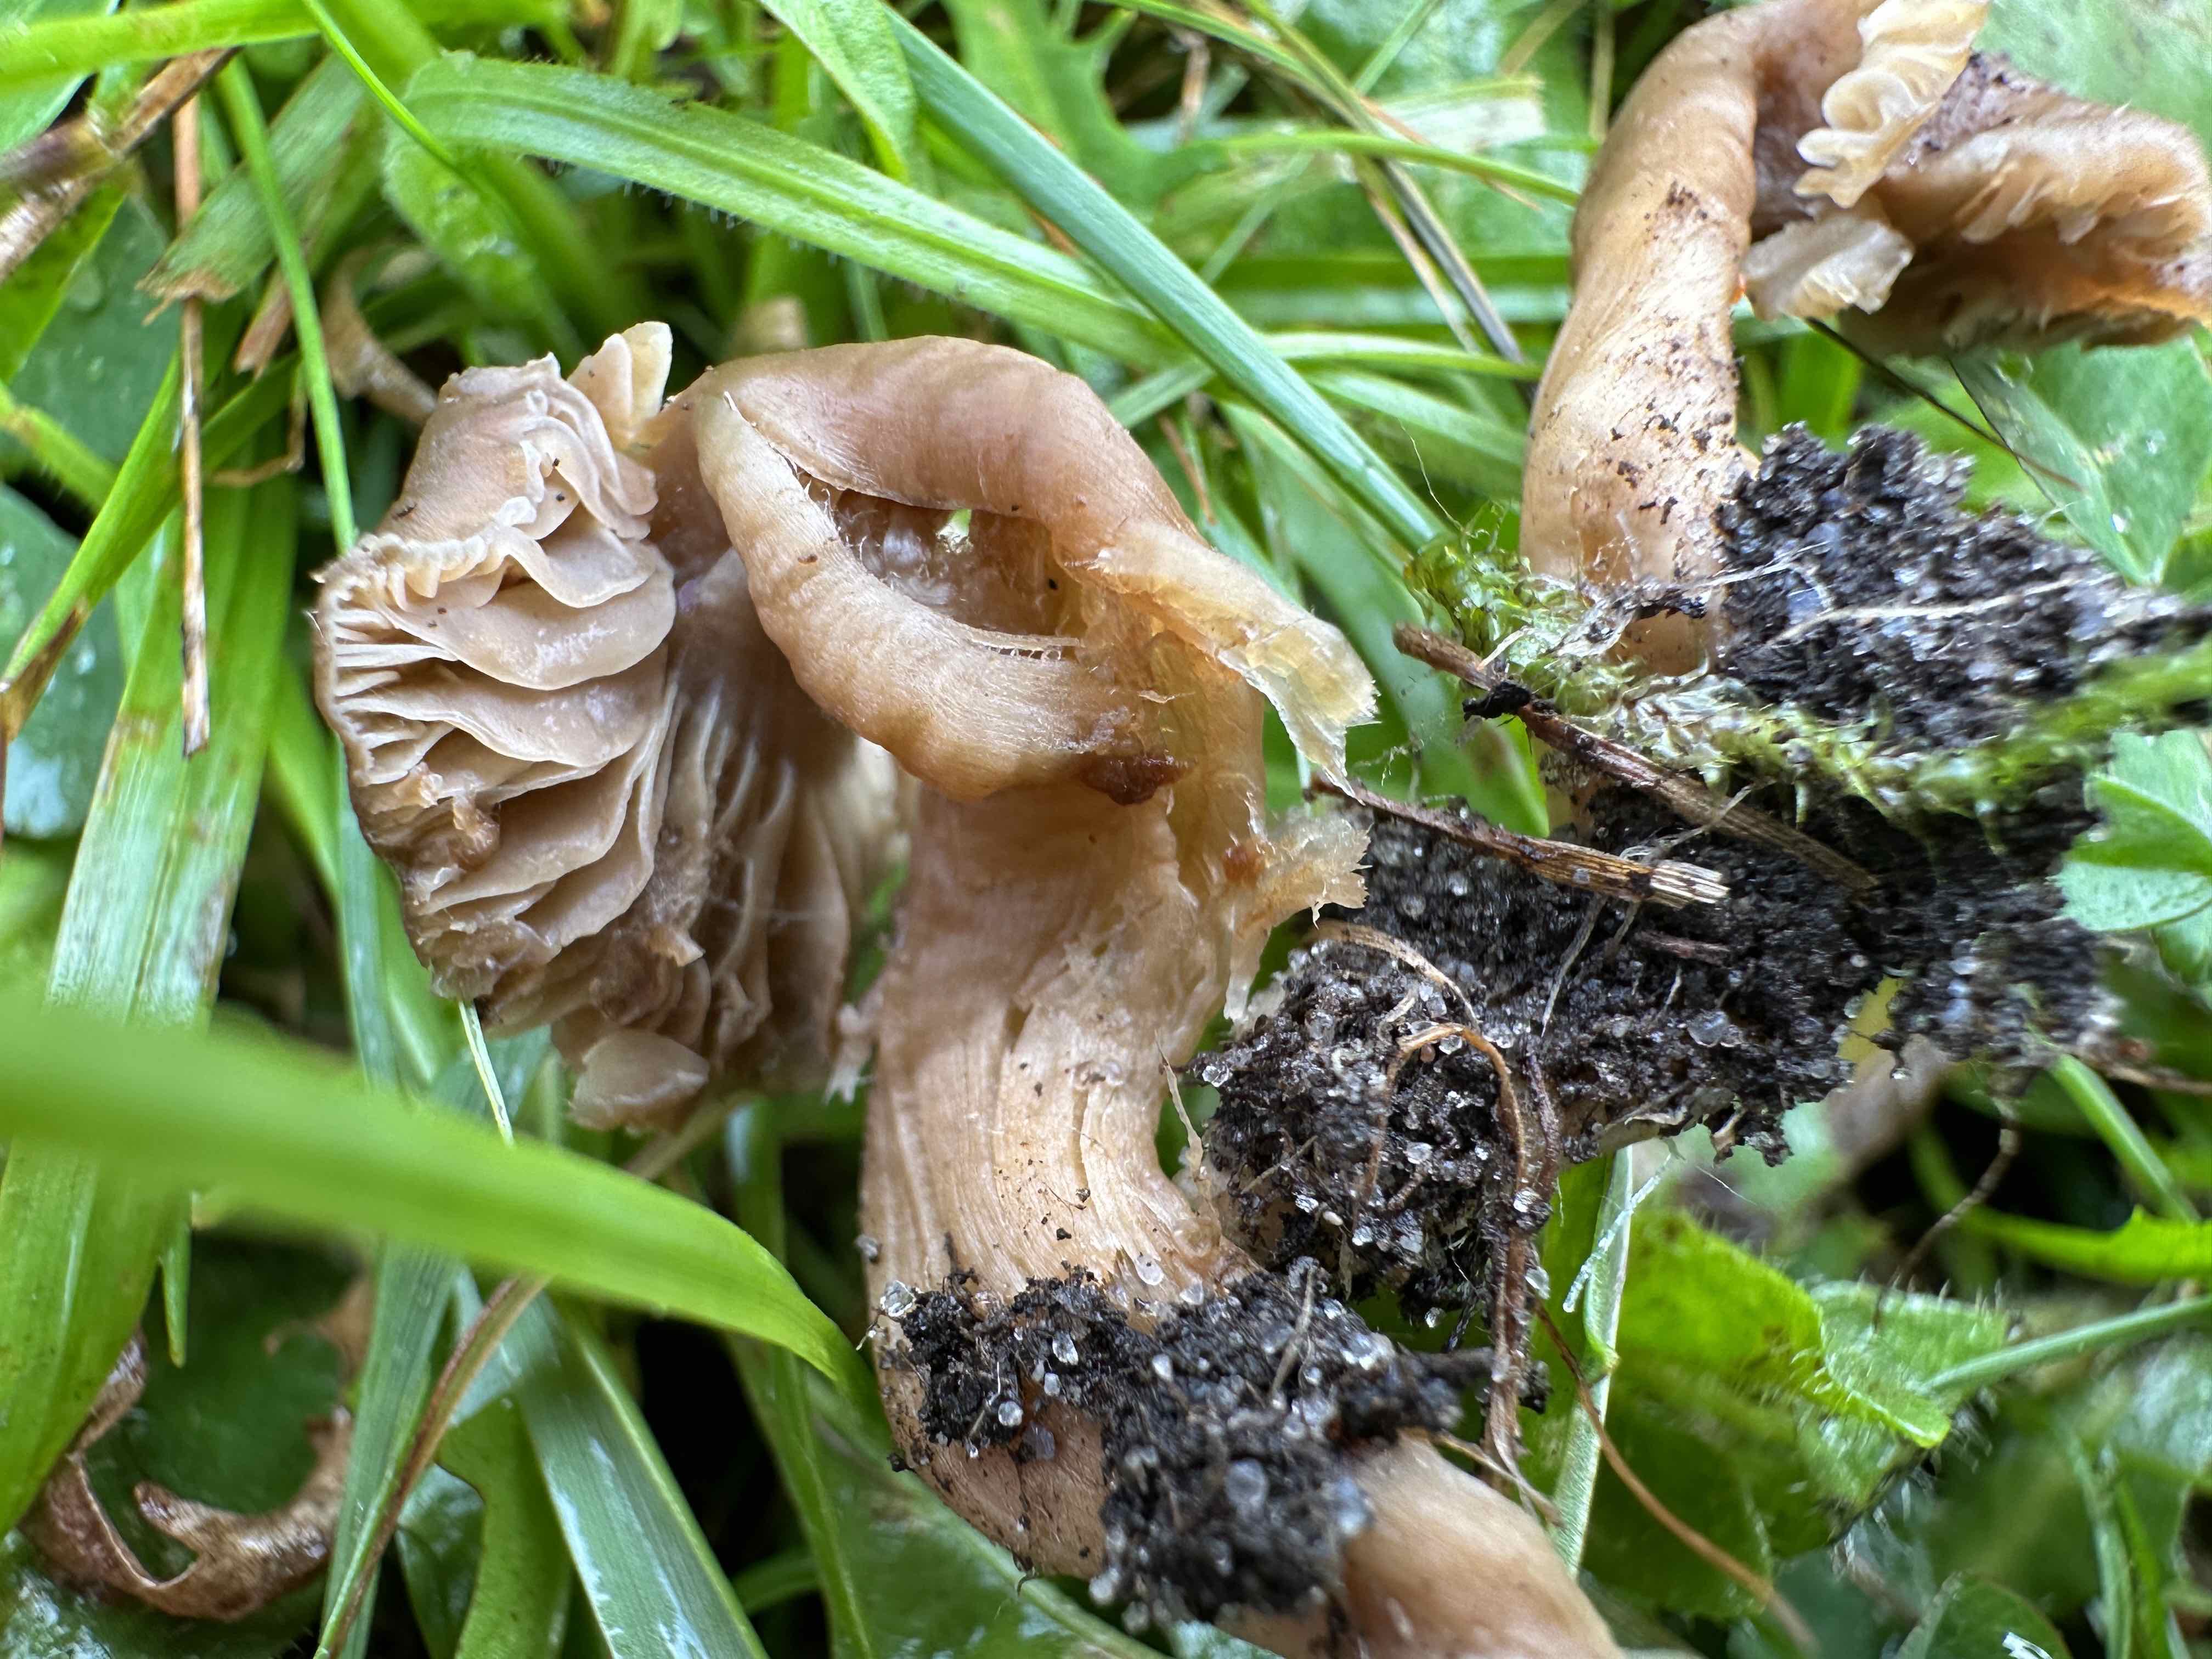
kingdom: Fungi
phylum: Basidiomycota
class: Agaricomycetes
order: Agaricales
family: Clavariaceae
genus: Camarophyllopsis
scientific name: Camarophyllopsis schulzeri
